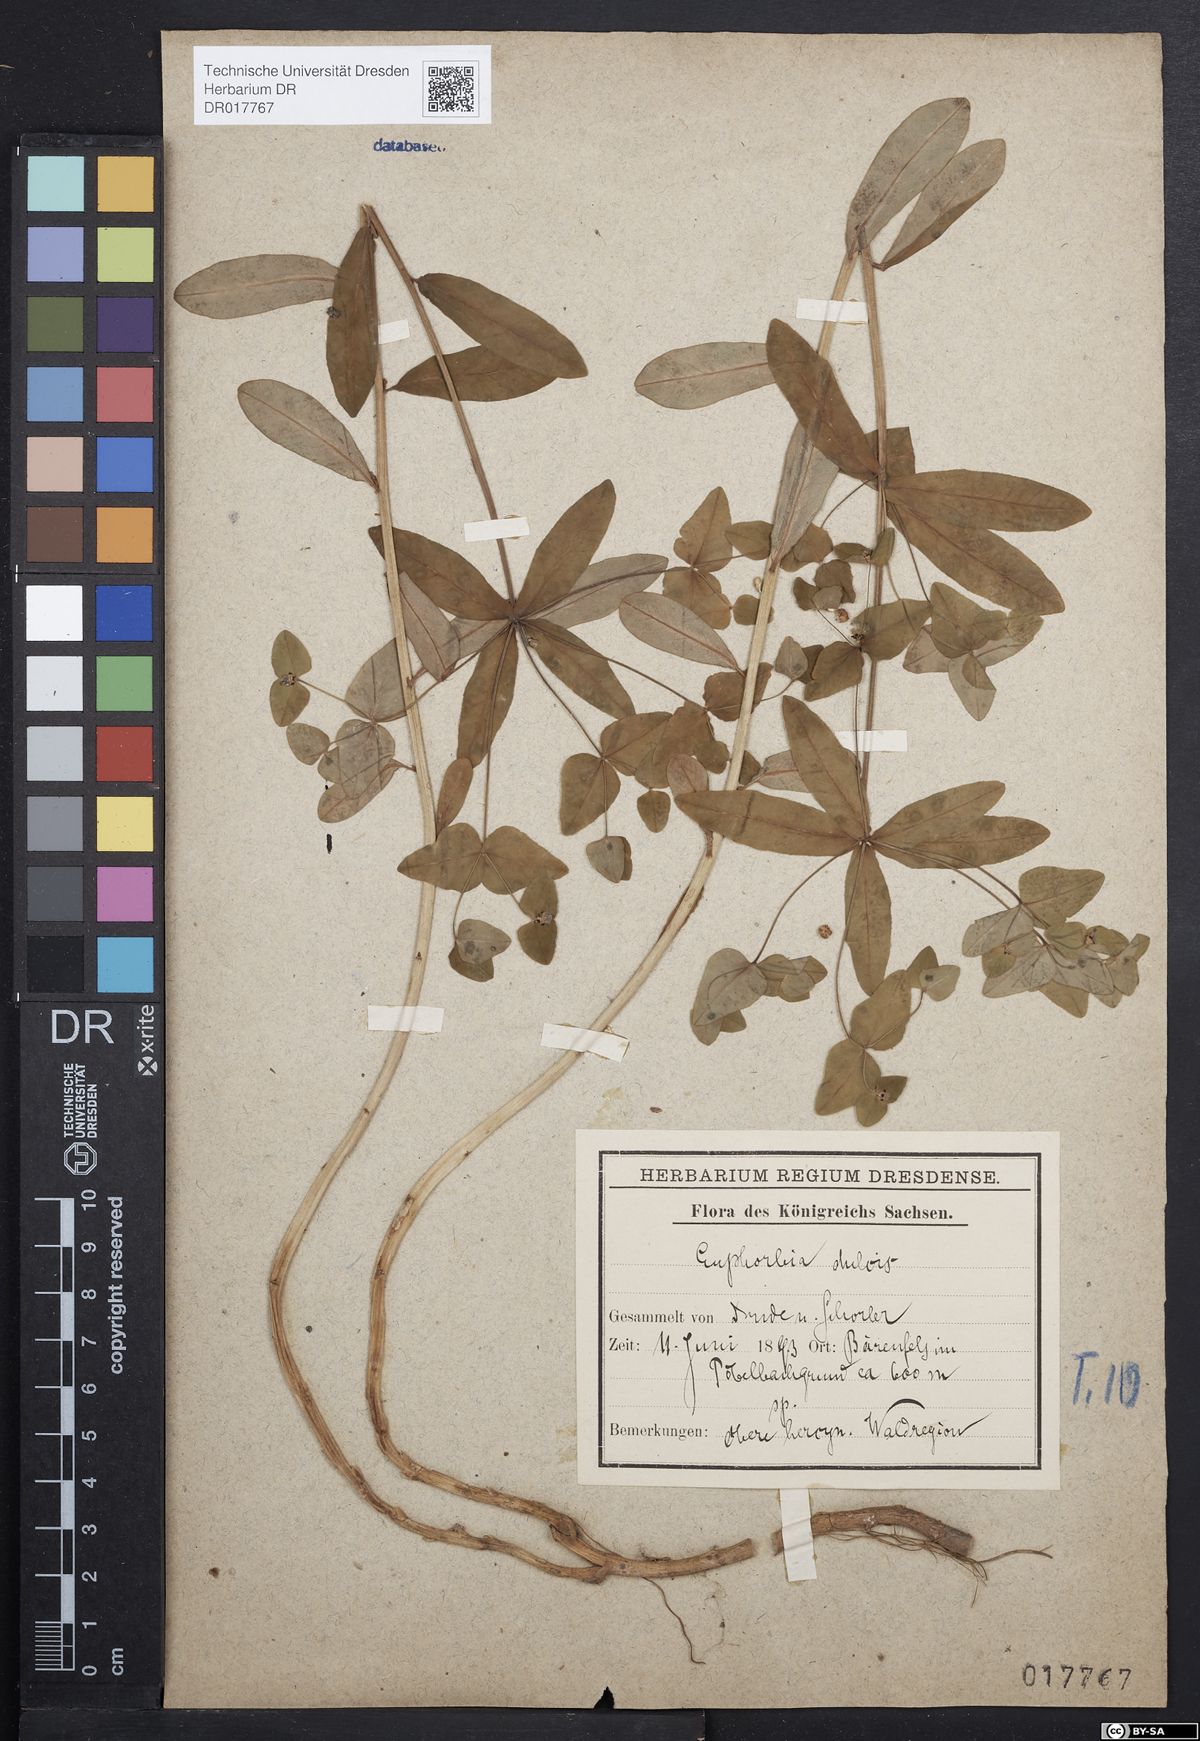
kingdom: Plantae
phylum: Tracheophyta
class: Magnoliopsida
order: Malpighiales
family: Euphorbiaceae
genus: Euphorbia
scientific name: Euphorbia dulcis
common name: Sweet spurge
